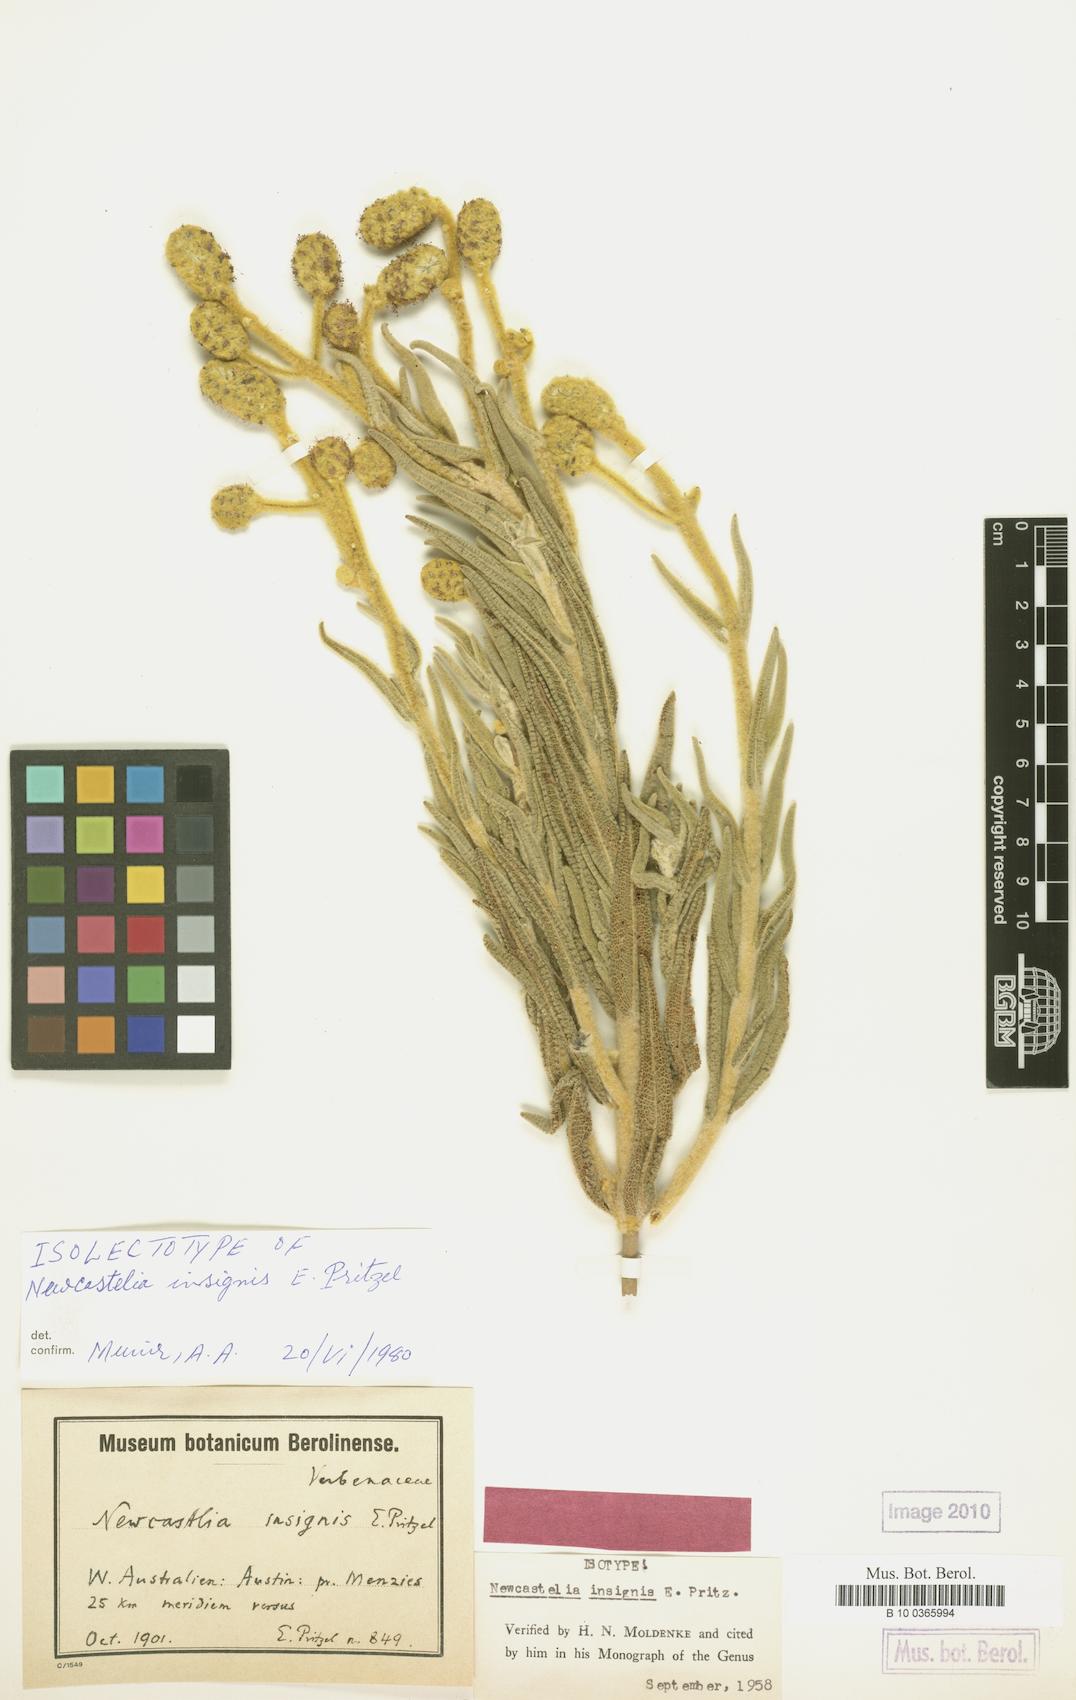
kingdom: Plantae
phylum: Tracheophyta
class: Magnoliopsida
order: Lamiales
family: Lamiaceae
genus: Apatelantha
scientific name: Apatelantha insignis
